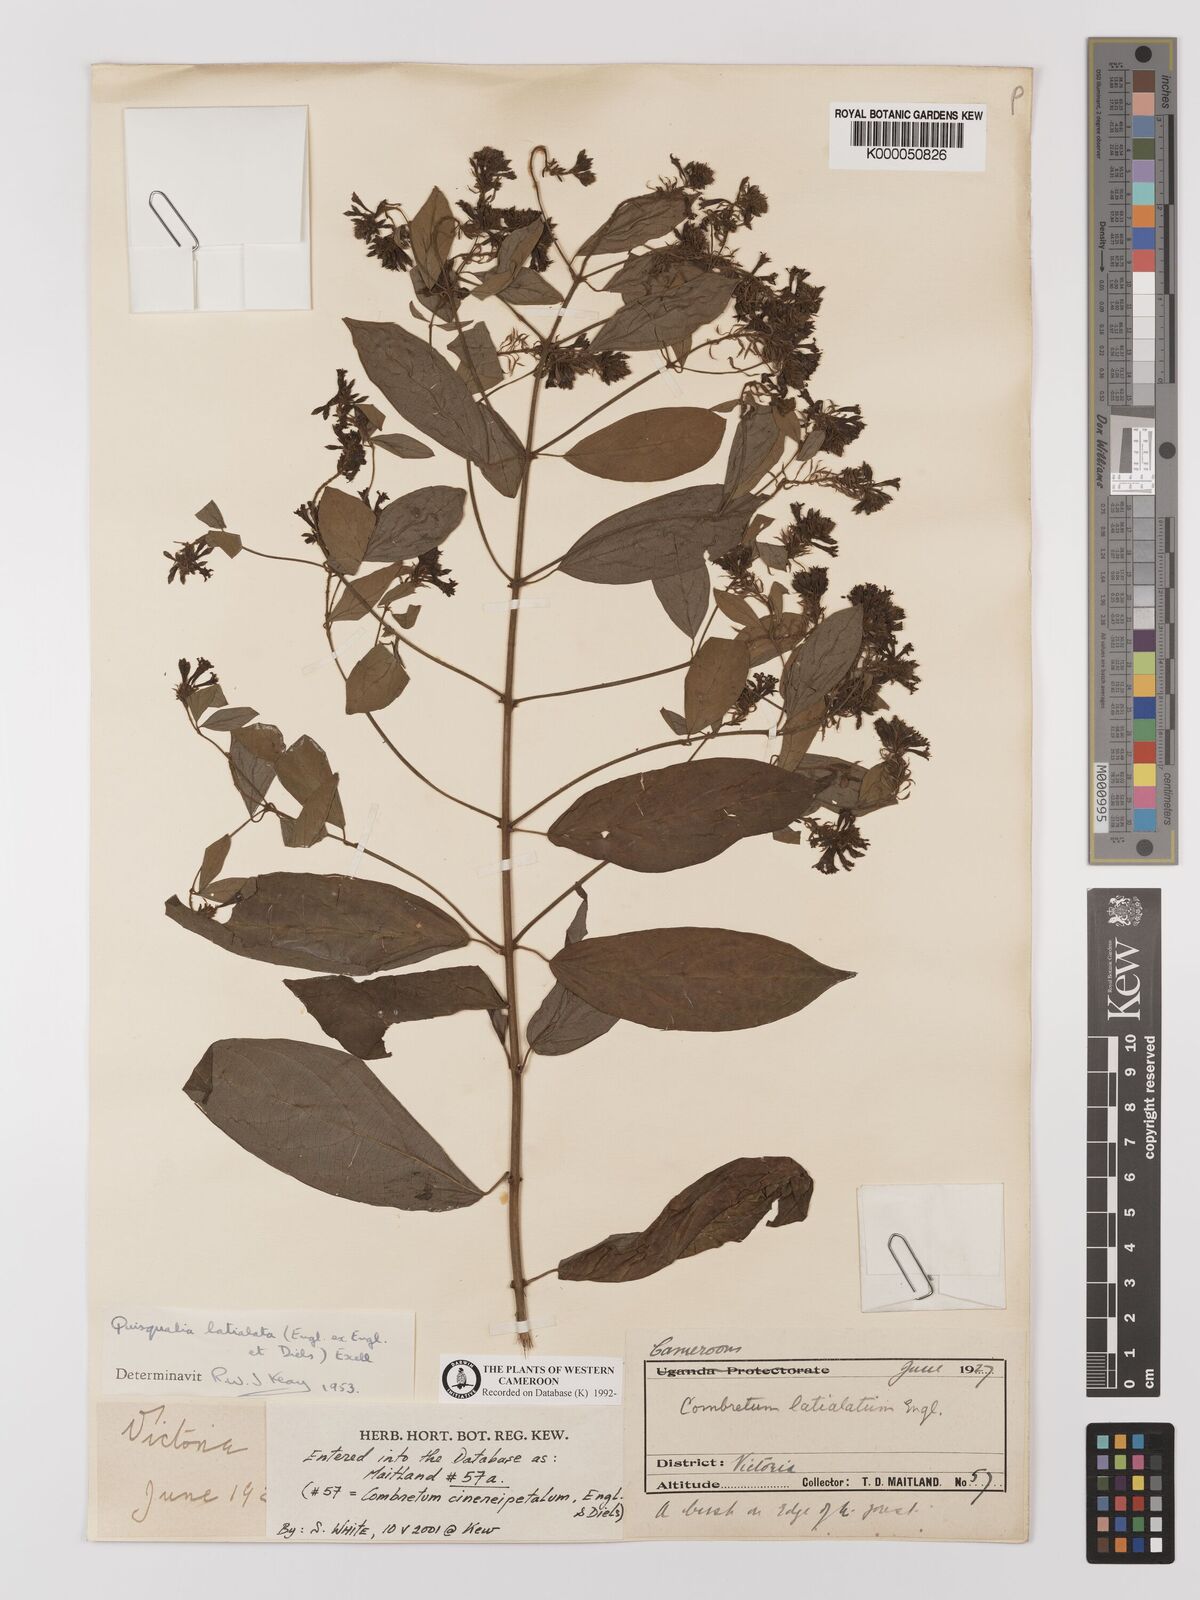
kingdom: Plantae
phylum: Tracheophyta
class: Magnoliopsida
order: Myrtales
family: Combretaceae
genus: Combretum
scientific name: Combretum latialatum
